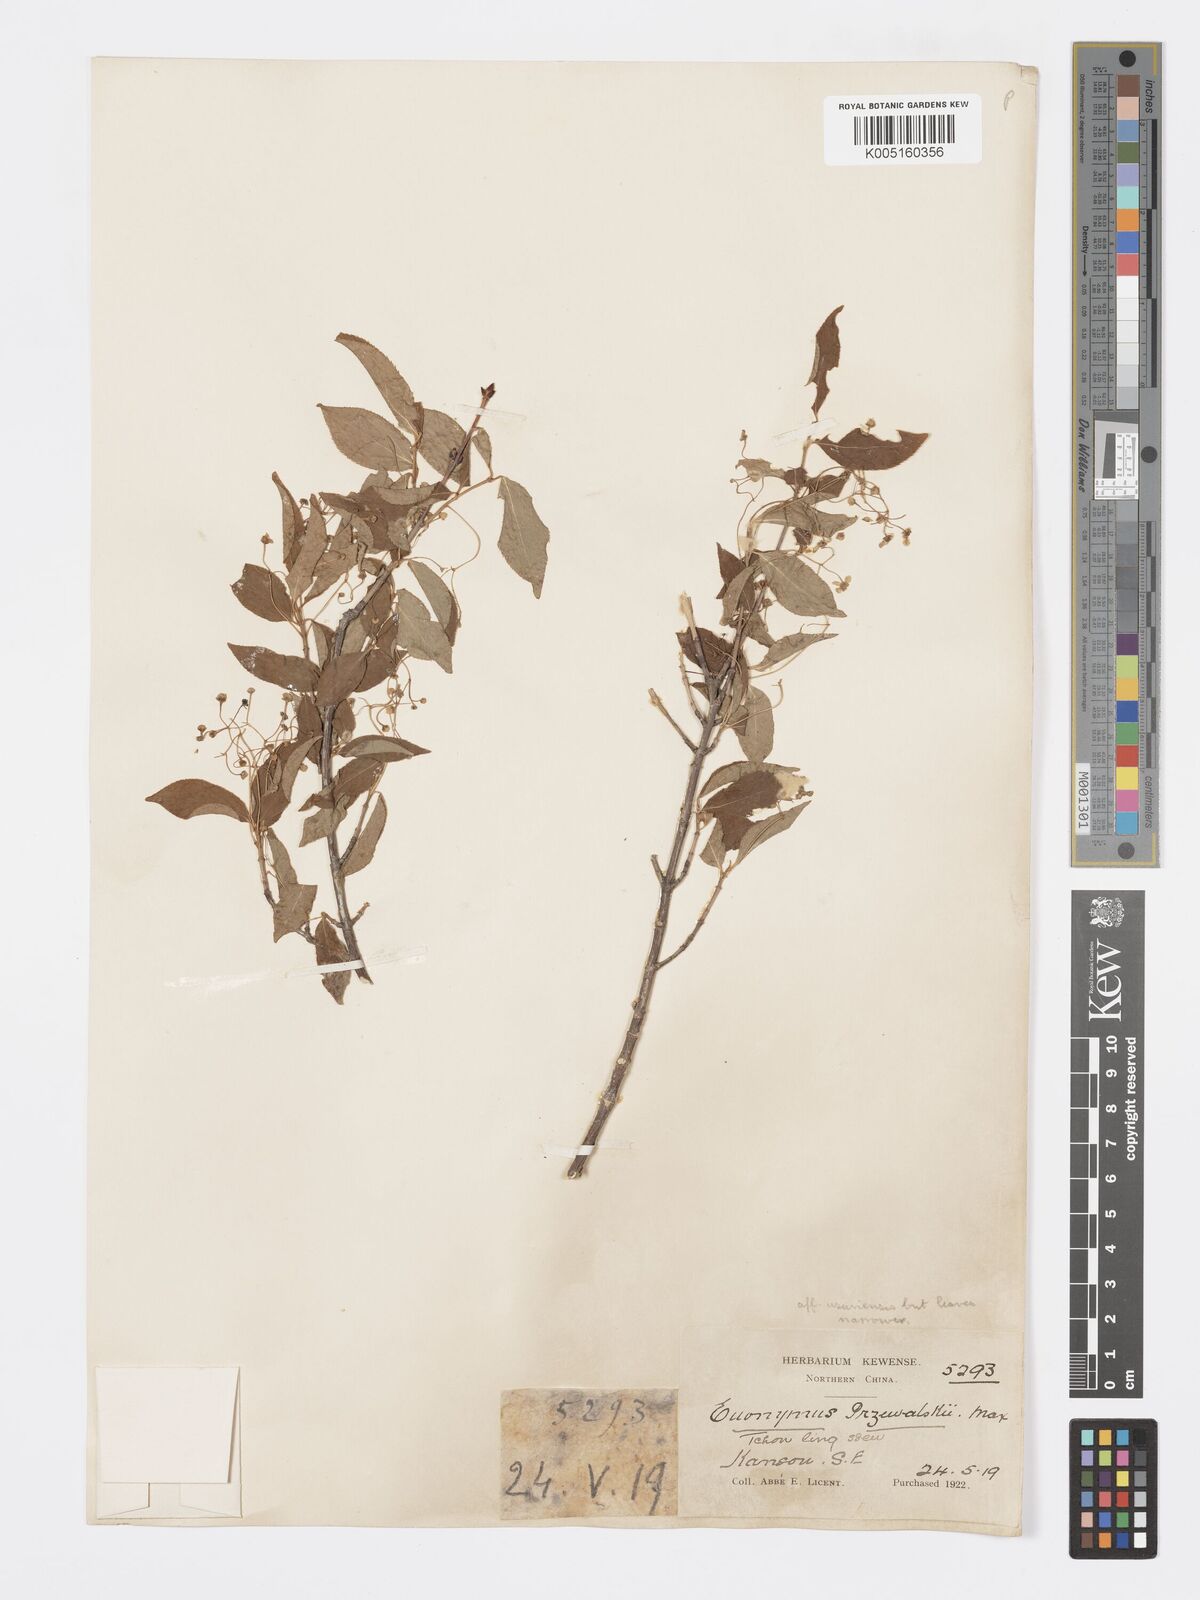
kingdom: Plantae
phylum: Tracheophyta
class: Magnoliopsida
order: Celastrales
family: Celastraceae
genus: Euonymus
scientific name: Euonymus macropterus
